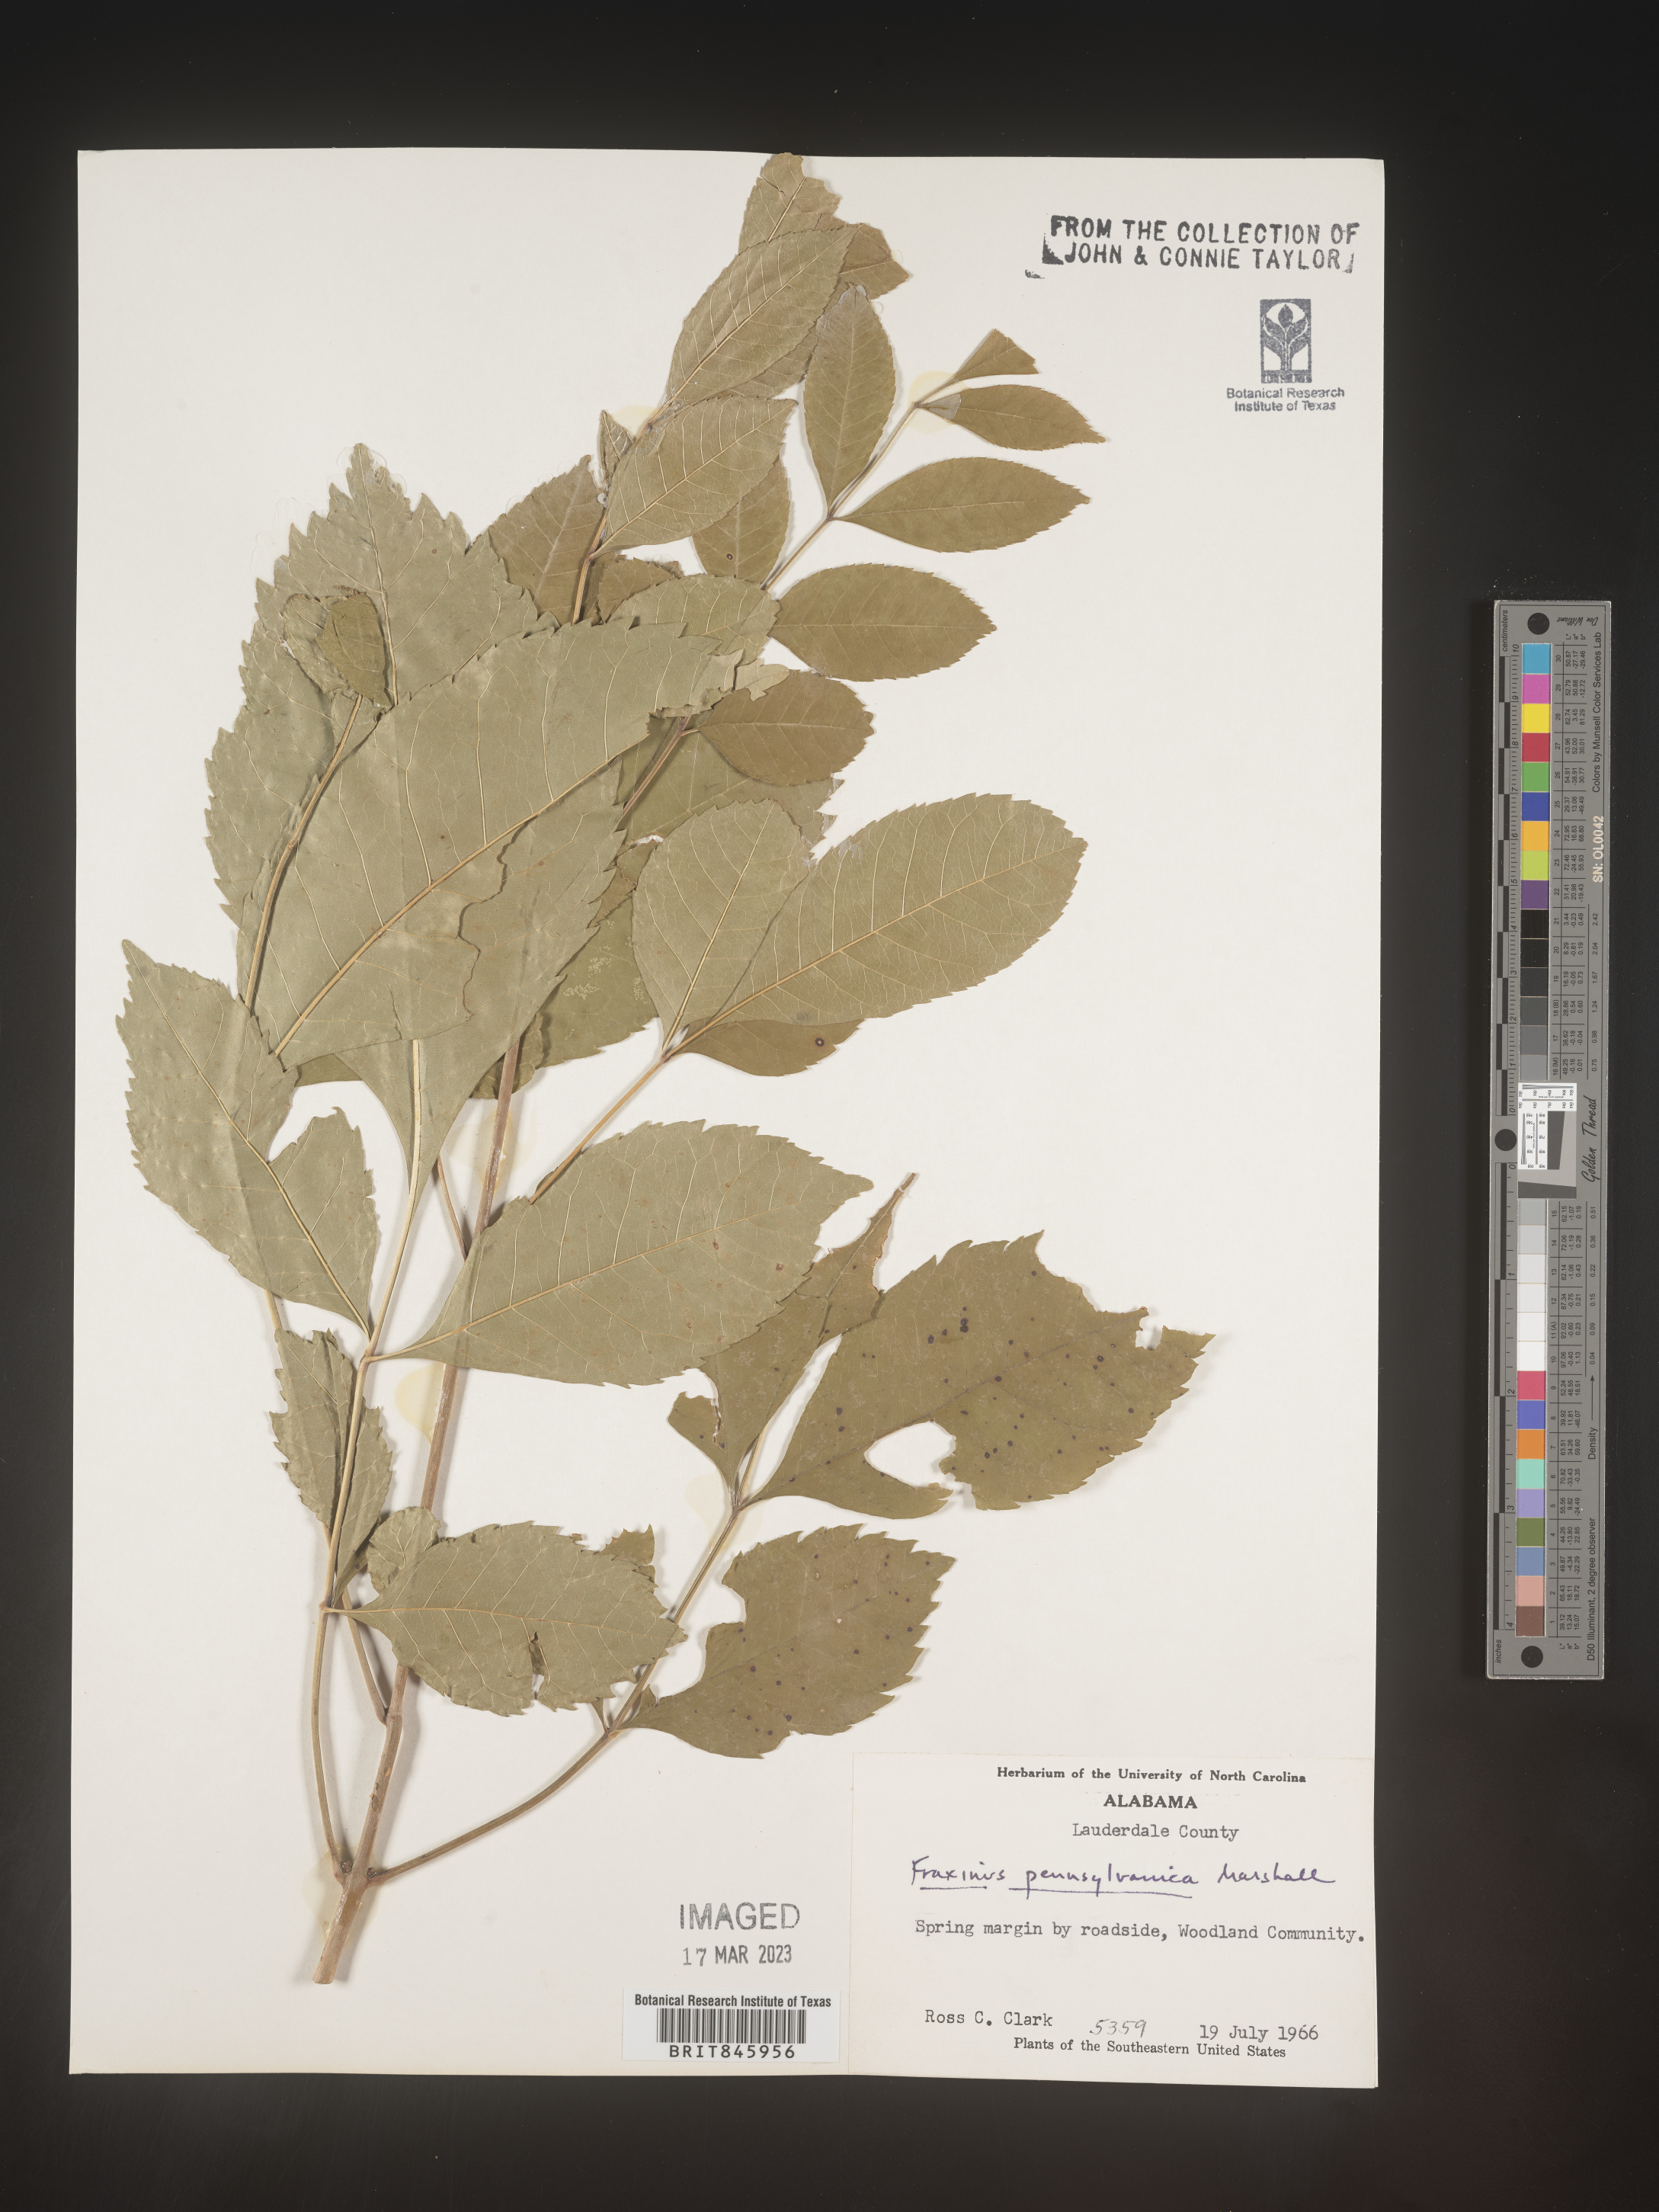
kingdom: Plantae
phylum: Tracheophyta
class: Magnoliopsida
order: Lamiales
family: Oleaceae
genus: Fraxinus
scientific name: Fraxinus
